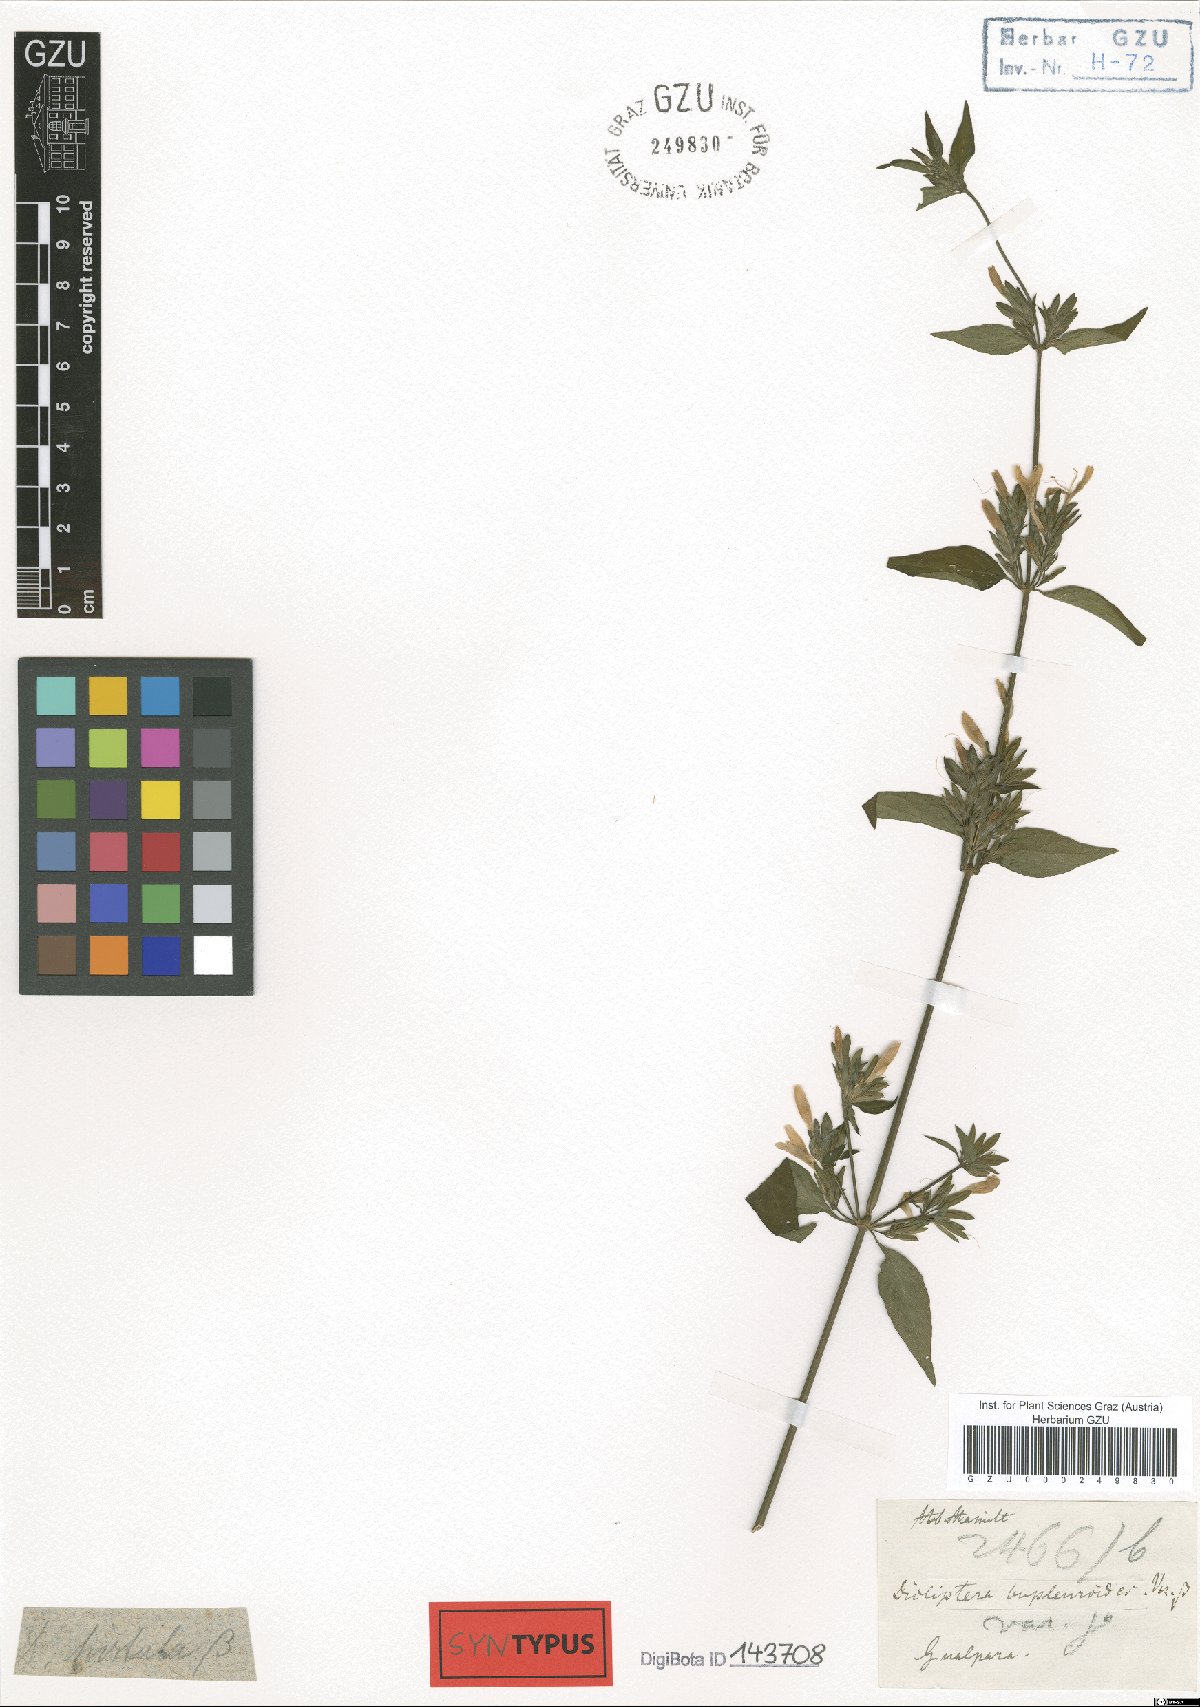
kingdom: Plantae
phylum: Tracheophyta
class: Magnoliopsida
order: Lamiales
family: Acanthaceae
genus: Dicliptera
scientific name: Dicliptera bupleuroides
